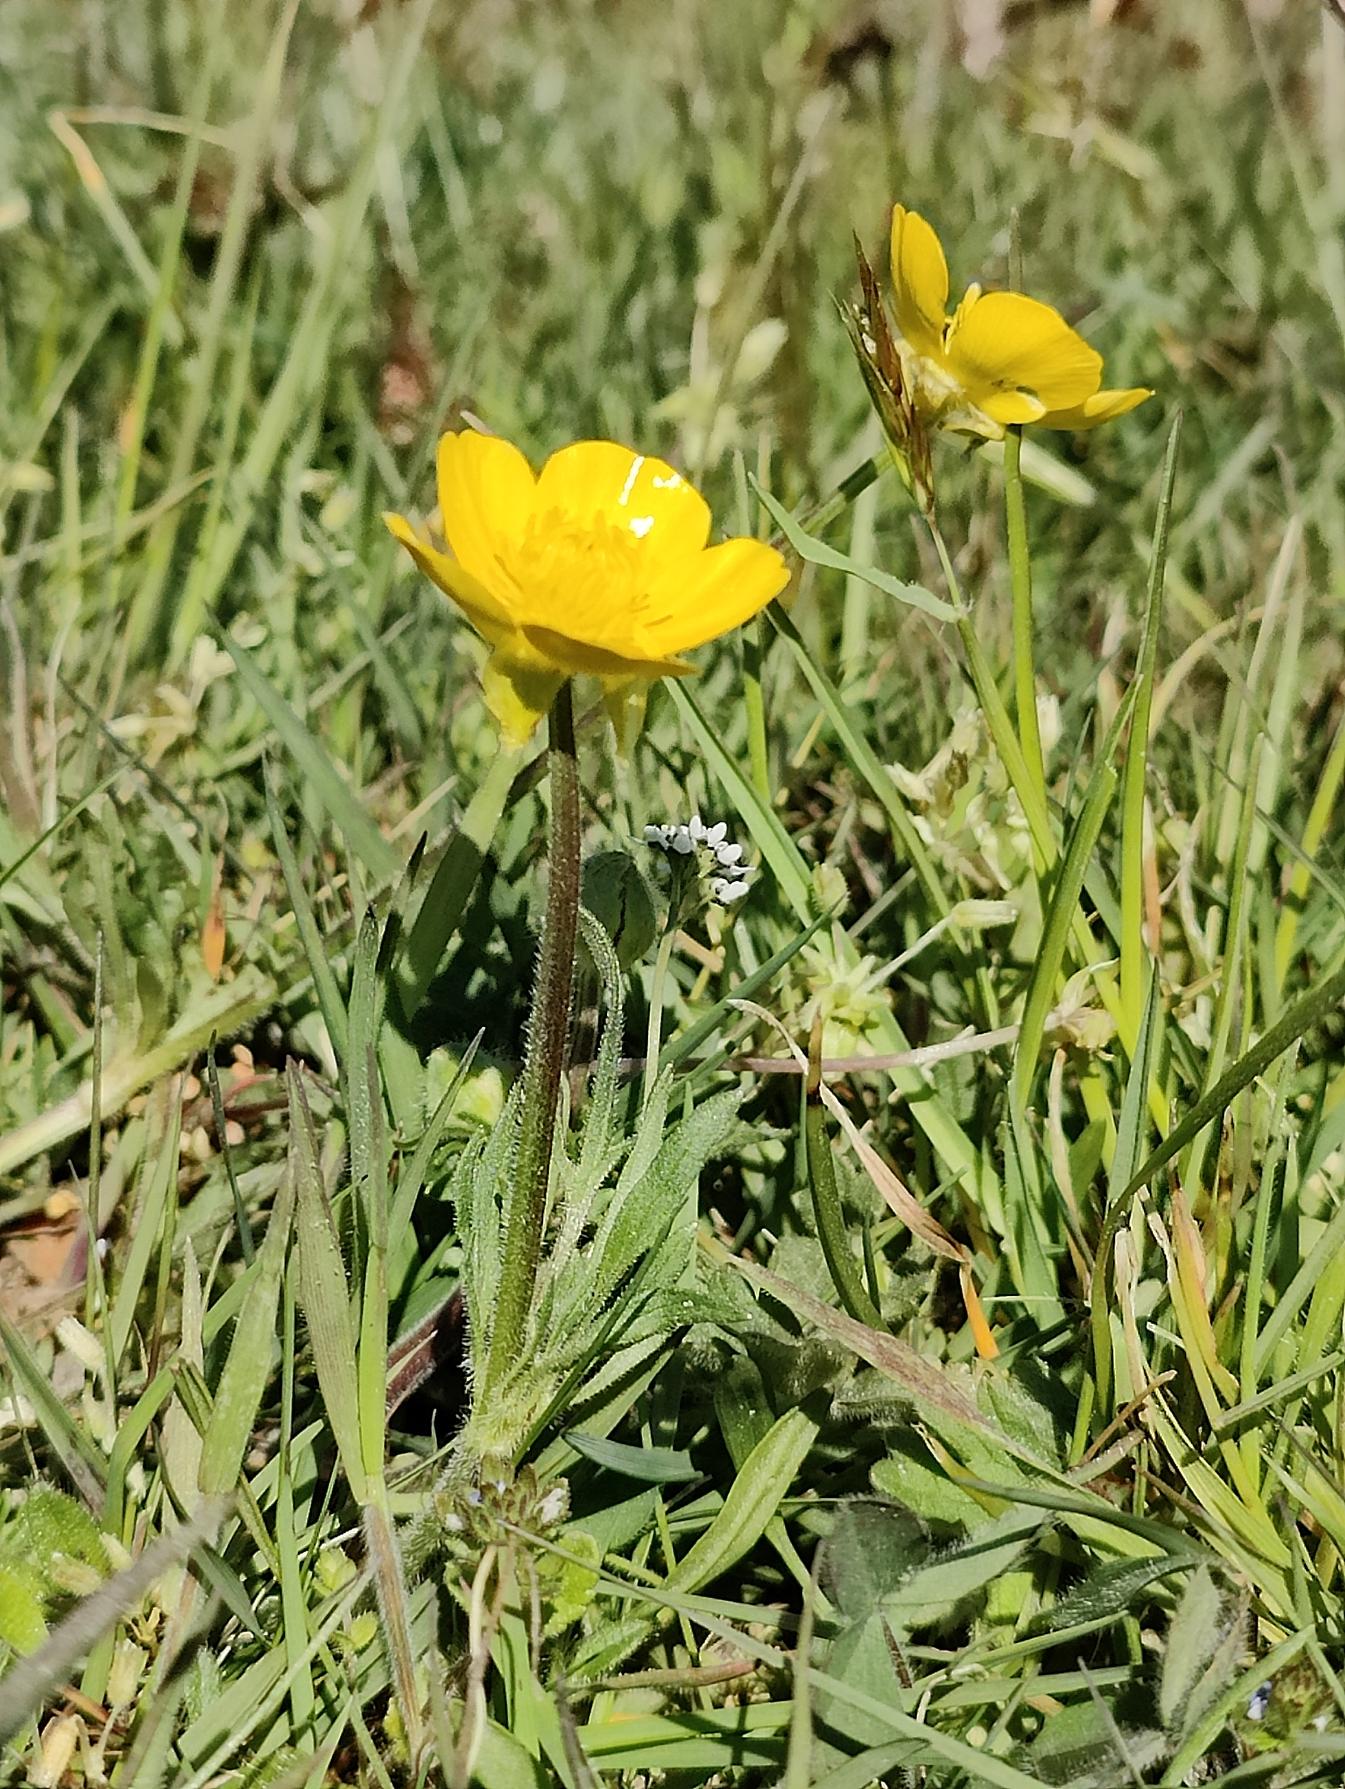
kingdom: Plantae
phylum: Tracheophyta
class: Magnoliopsida
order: Ranunculales
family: Ranunculaceae
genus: Ranunculus
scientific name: Ranunculus bulbosus
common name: Knold-ranunkel
